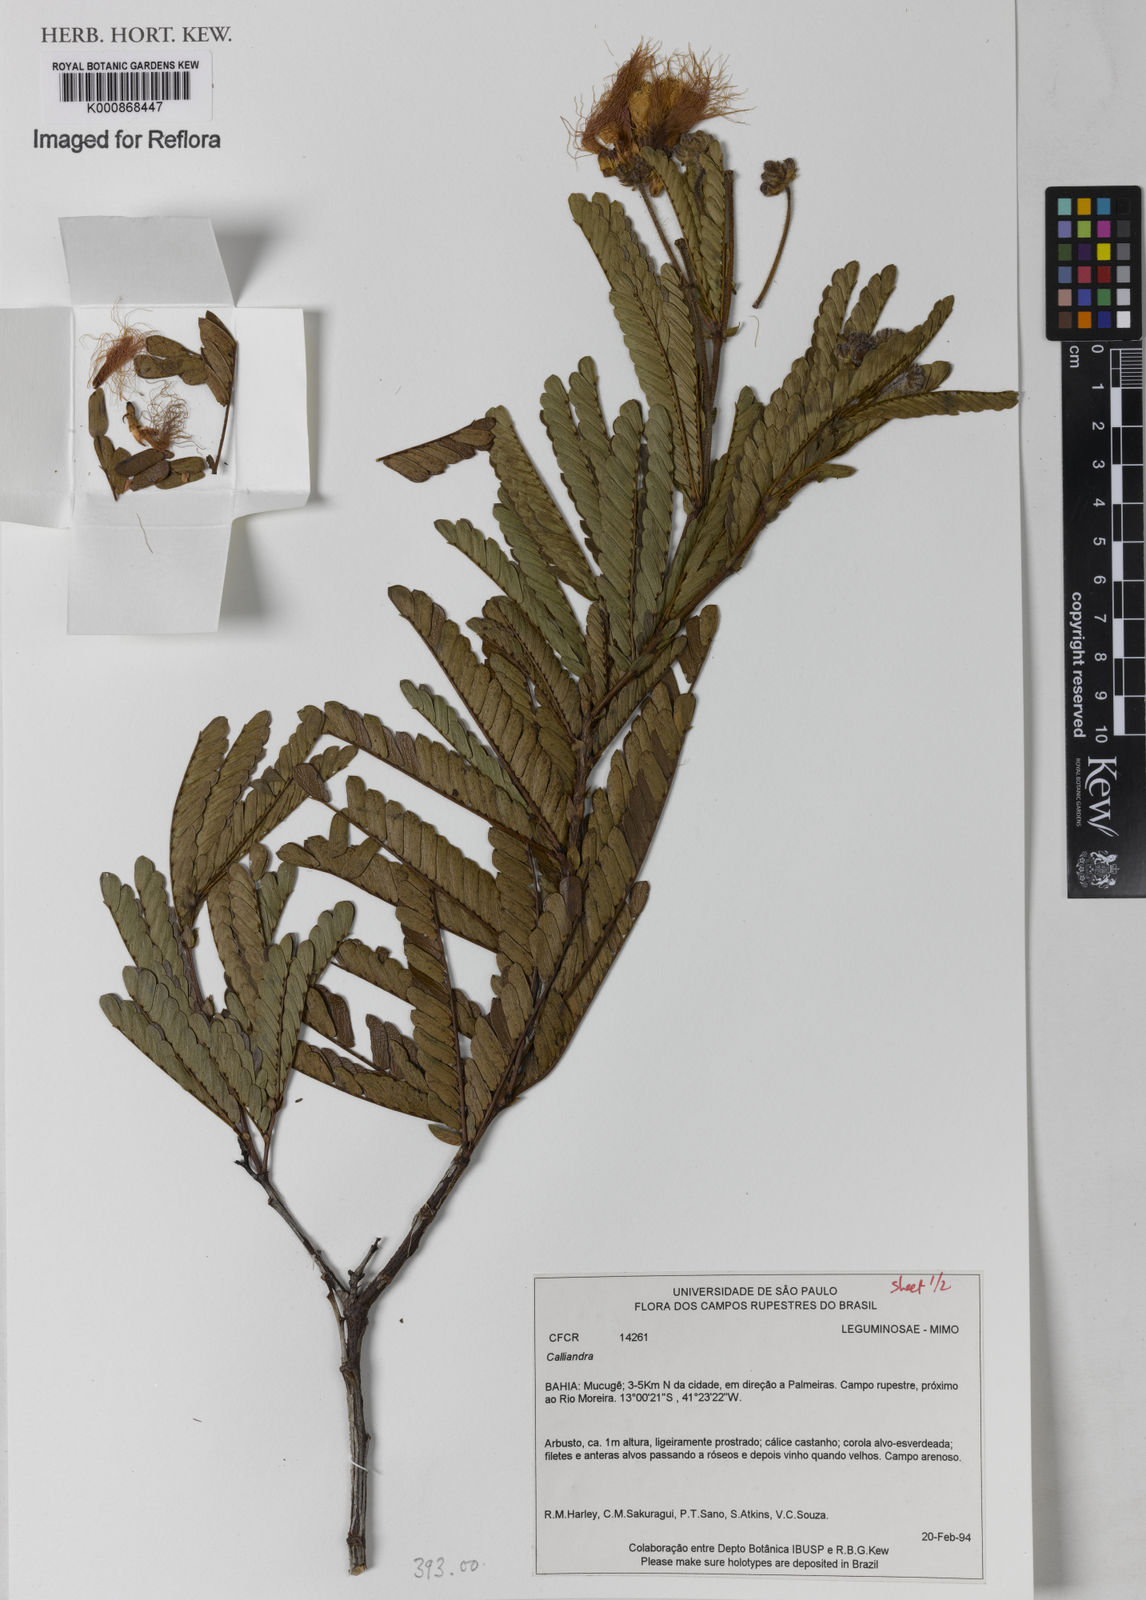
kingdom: Plantae
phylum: Tracheophyta
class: Magnoliopsida
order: Fabales
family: Fabaceae
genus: Calliandra
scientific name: Calliandra
